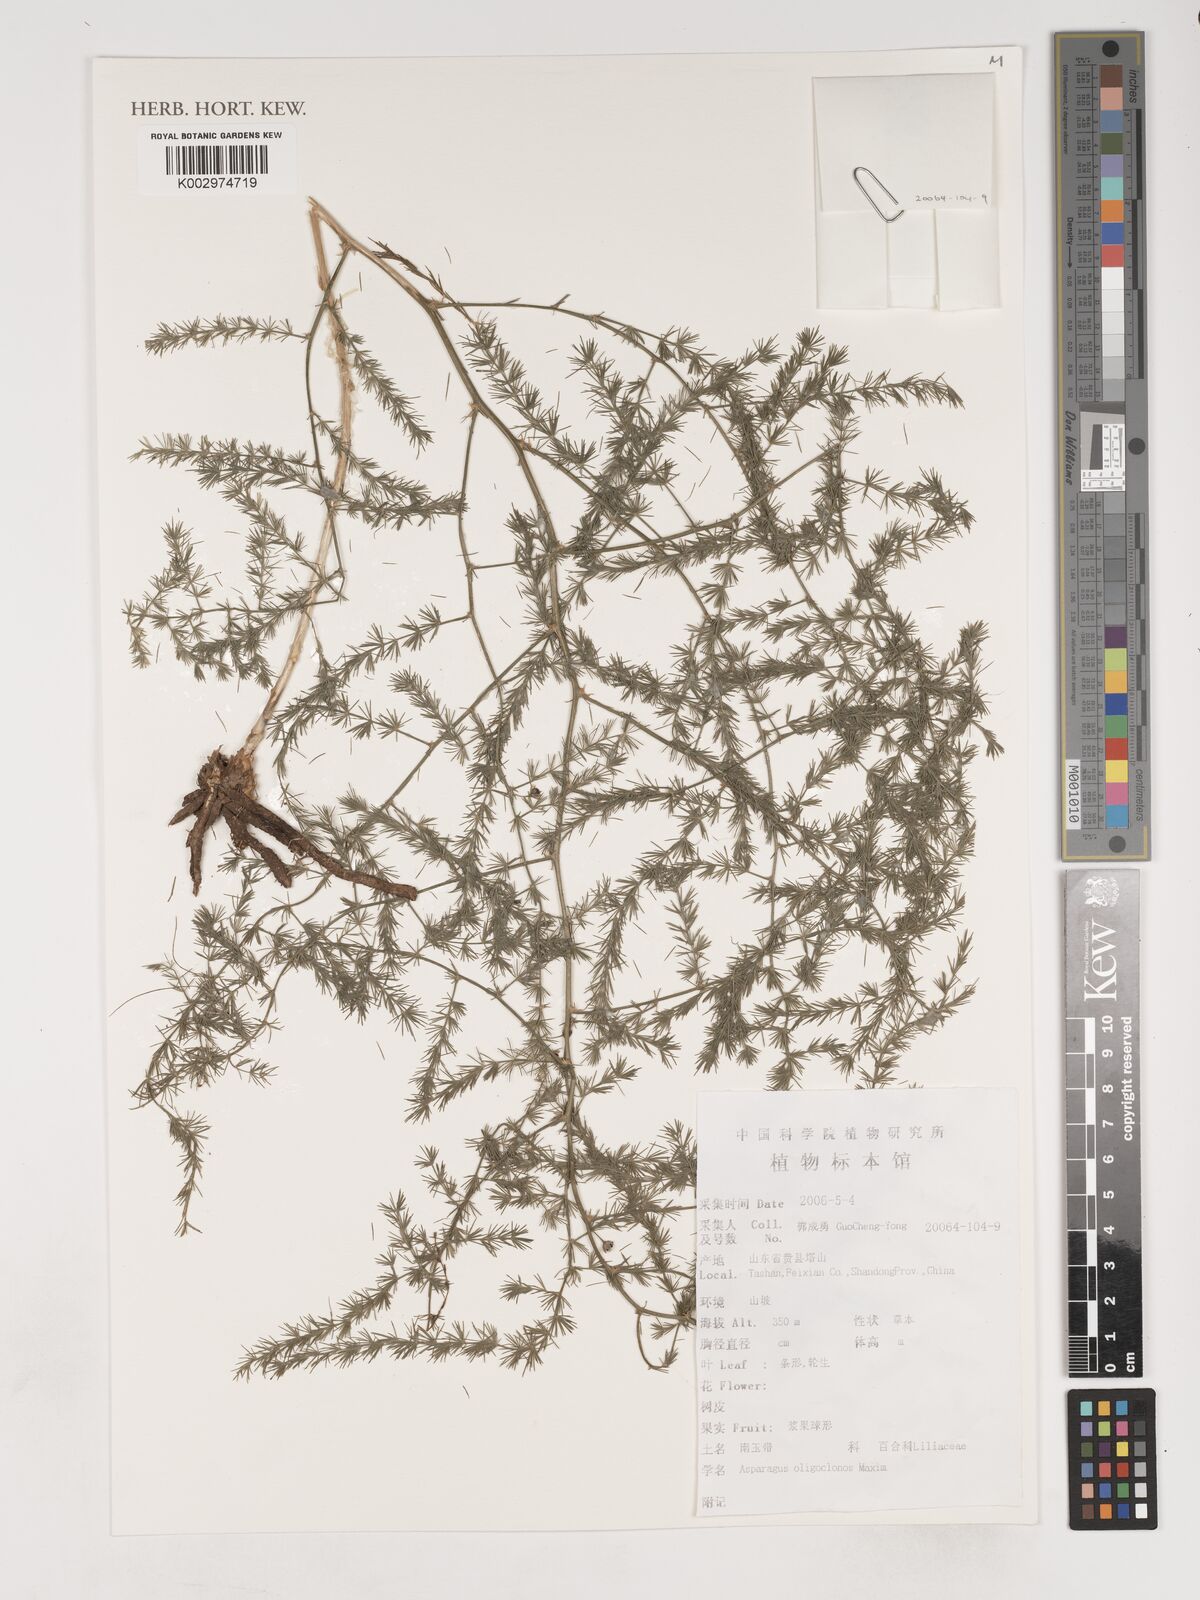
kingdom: Plantae
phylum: Tracheophyta
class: Liliopsida
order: Asparagales
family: Asparagaceae
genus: Asparagus
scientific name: Asparagus oligoclonos
